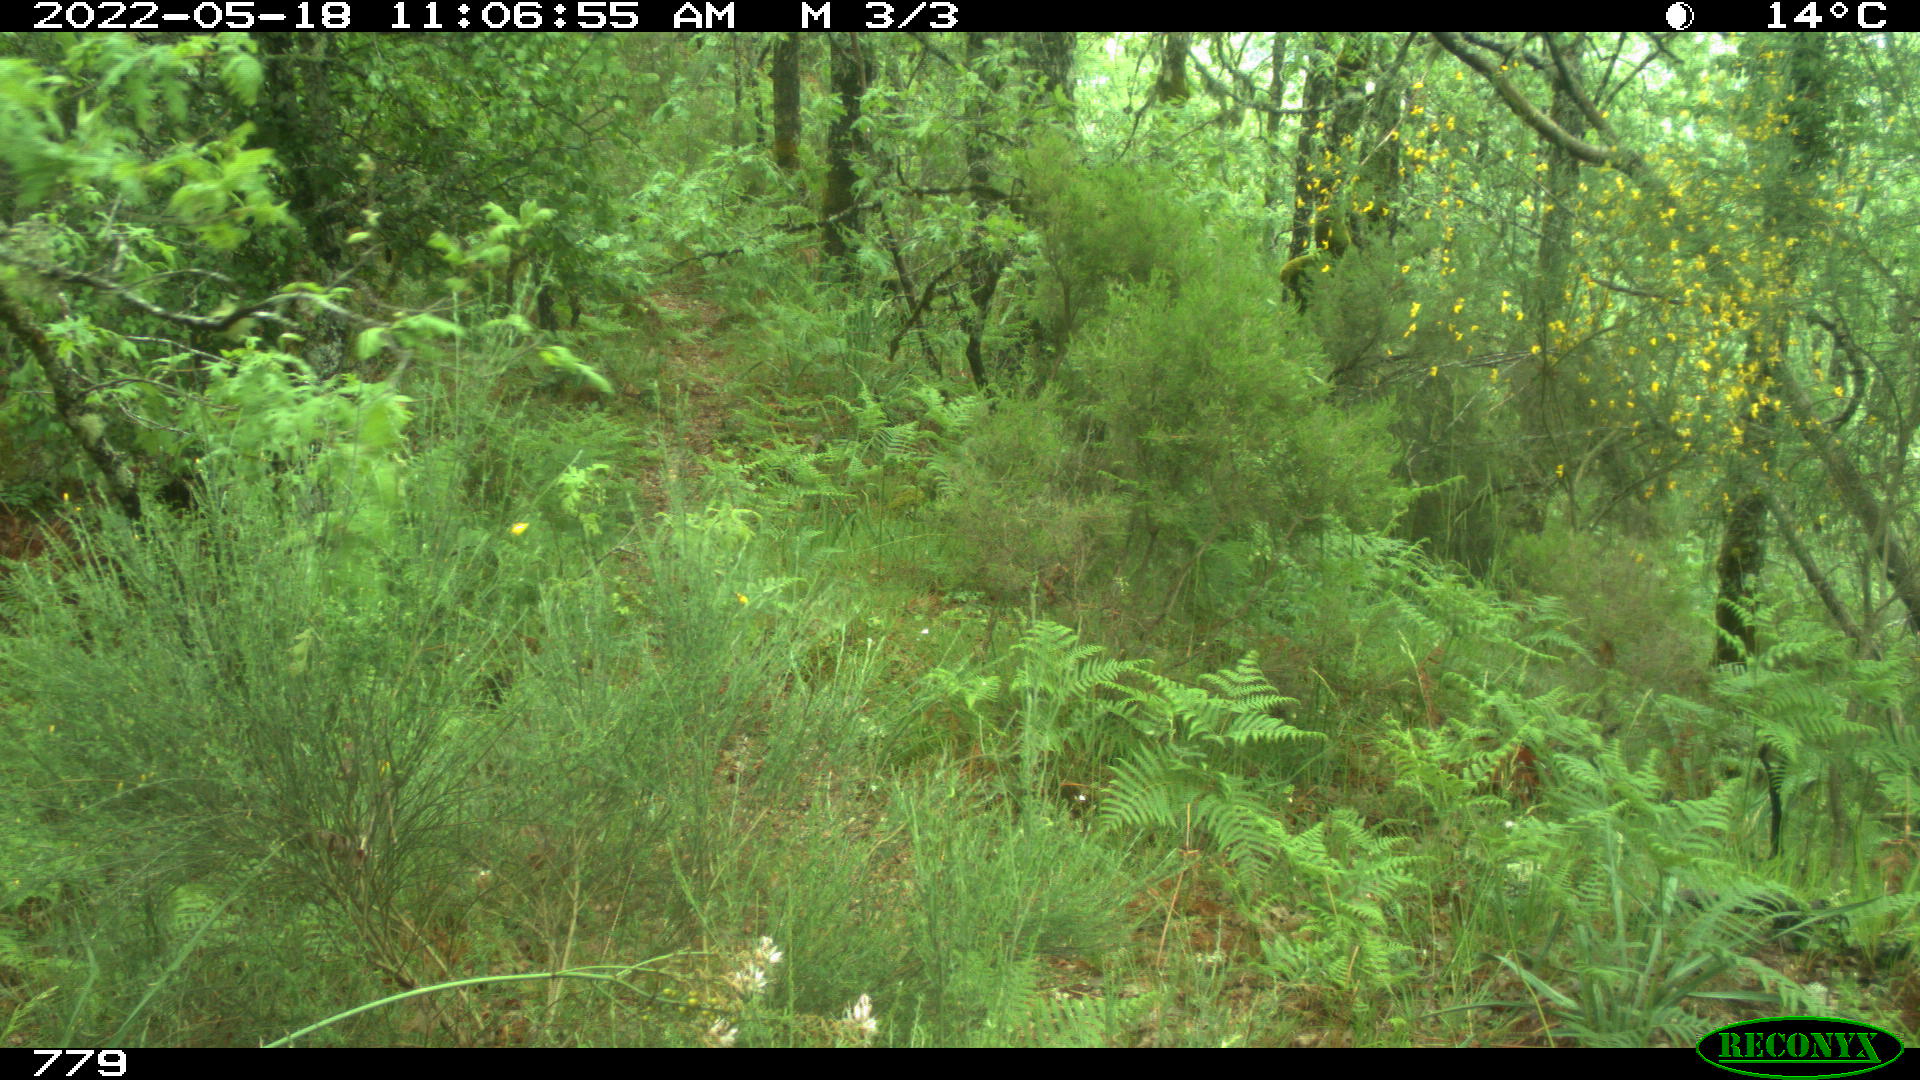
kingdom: Animalia
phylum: Chordata
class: Mammalia
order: Perissodactyla
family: Equidae
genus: Equus
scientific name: Equus caballus
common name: Horse
